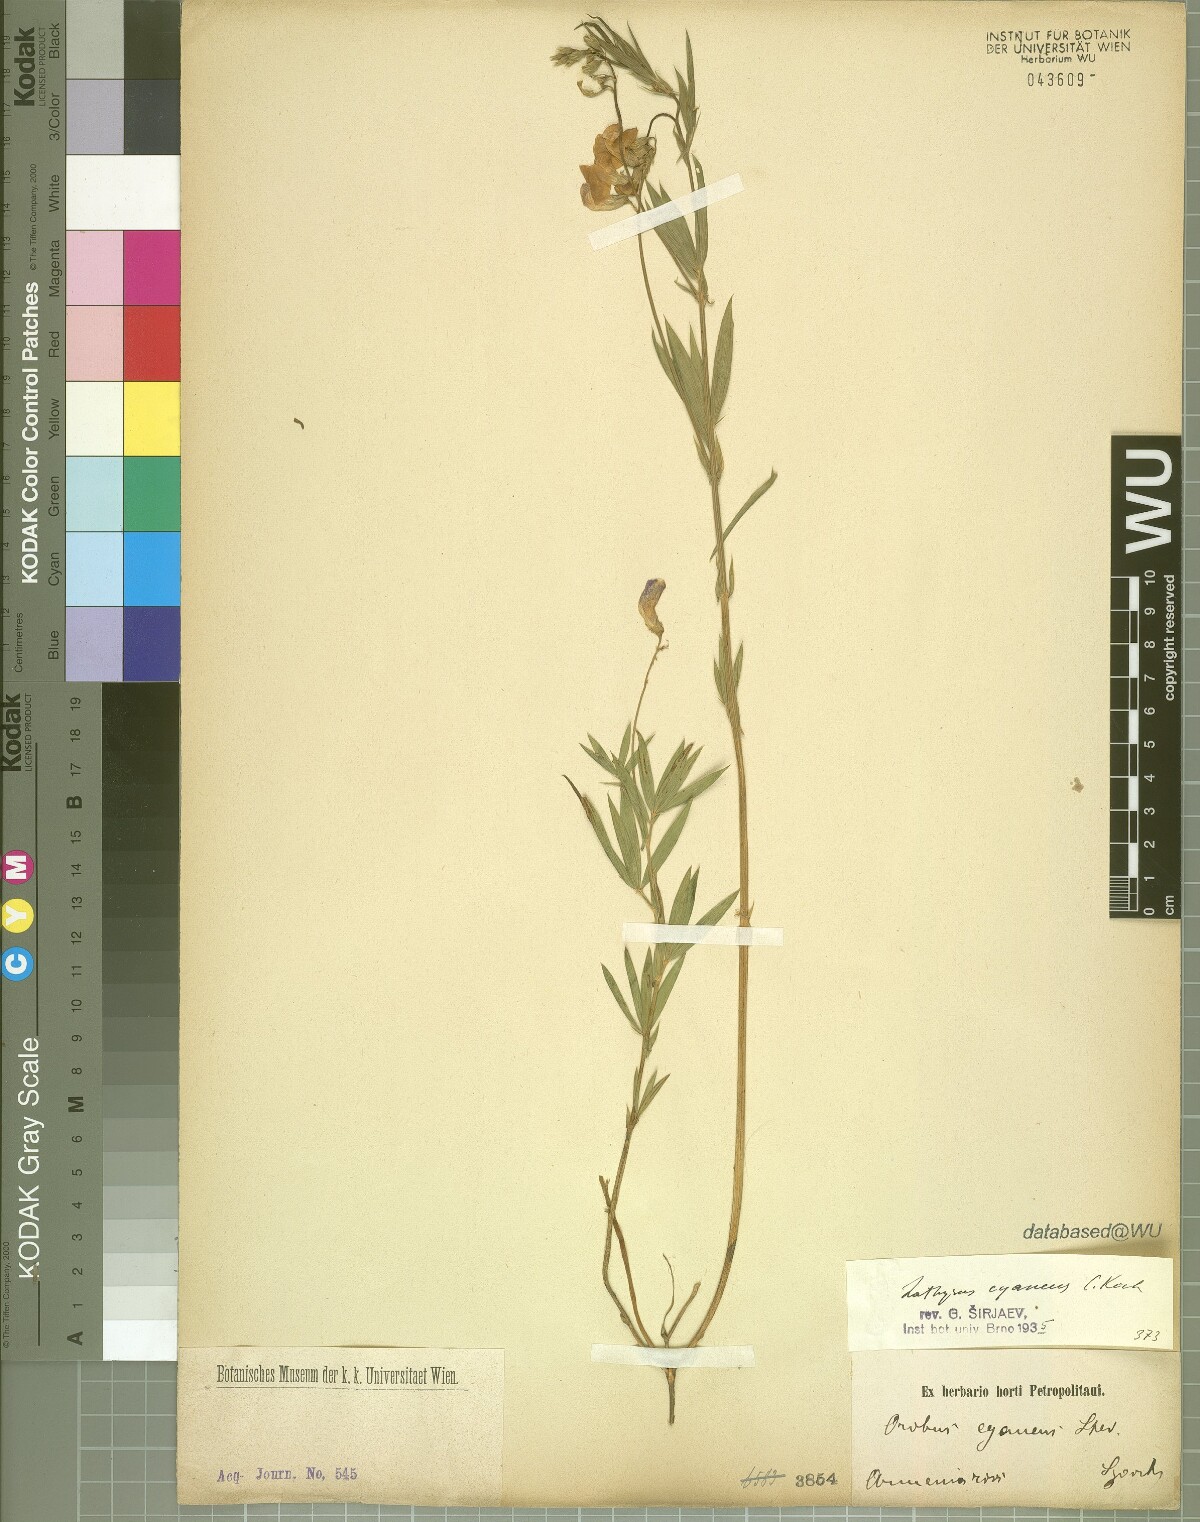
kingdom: Plantae
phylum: Tracheophyta
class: Magnoliopsida
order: Fabales
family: Fabaceae
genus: Lathyrus
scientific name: Lathyrus cyaneus
